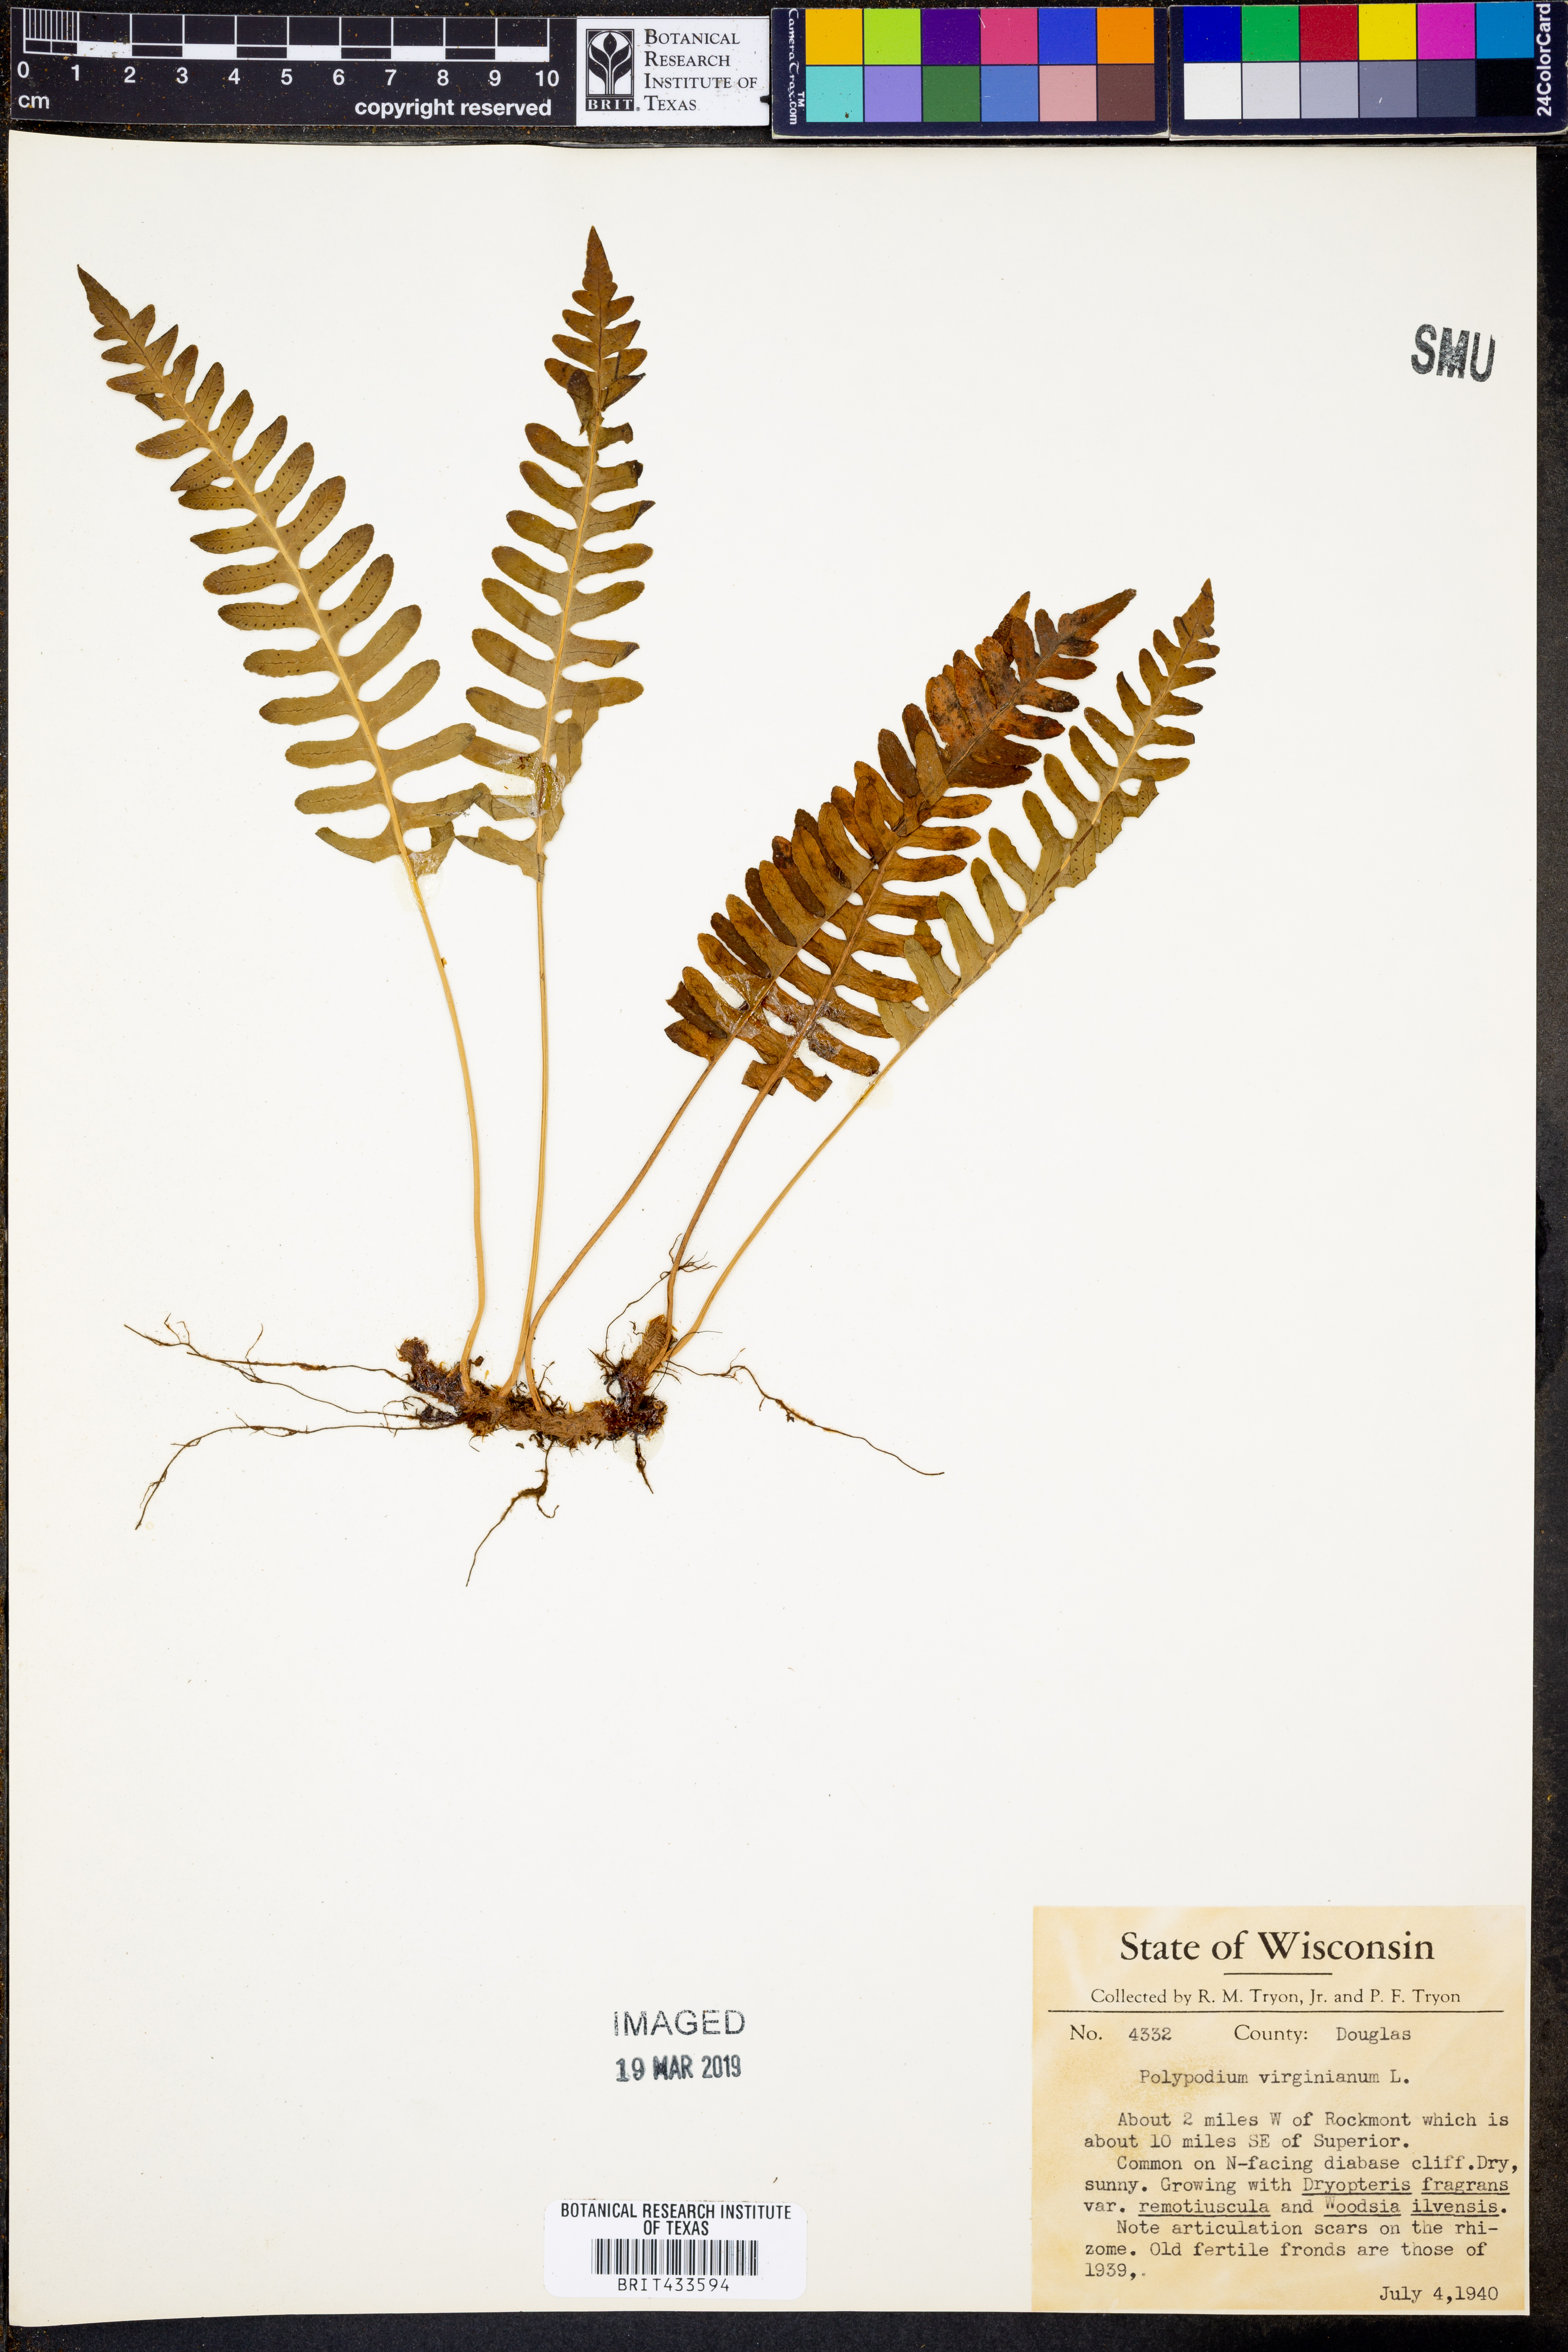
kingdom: Plantae
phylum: Tracheophyta
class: Polypodiopsida
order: Polypodiales
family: Polypodiaceae
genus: Polypodium
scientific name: Polypodium virginianum
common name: American wall fern
